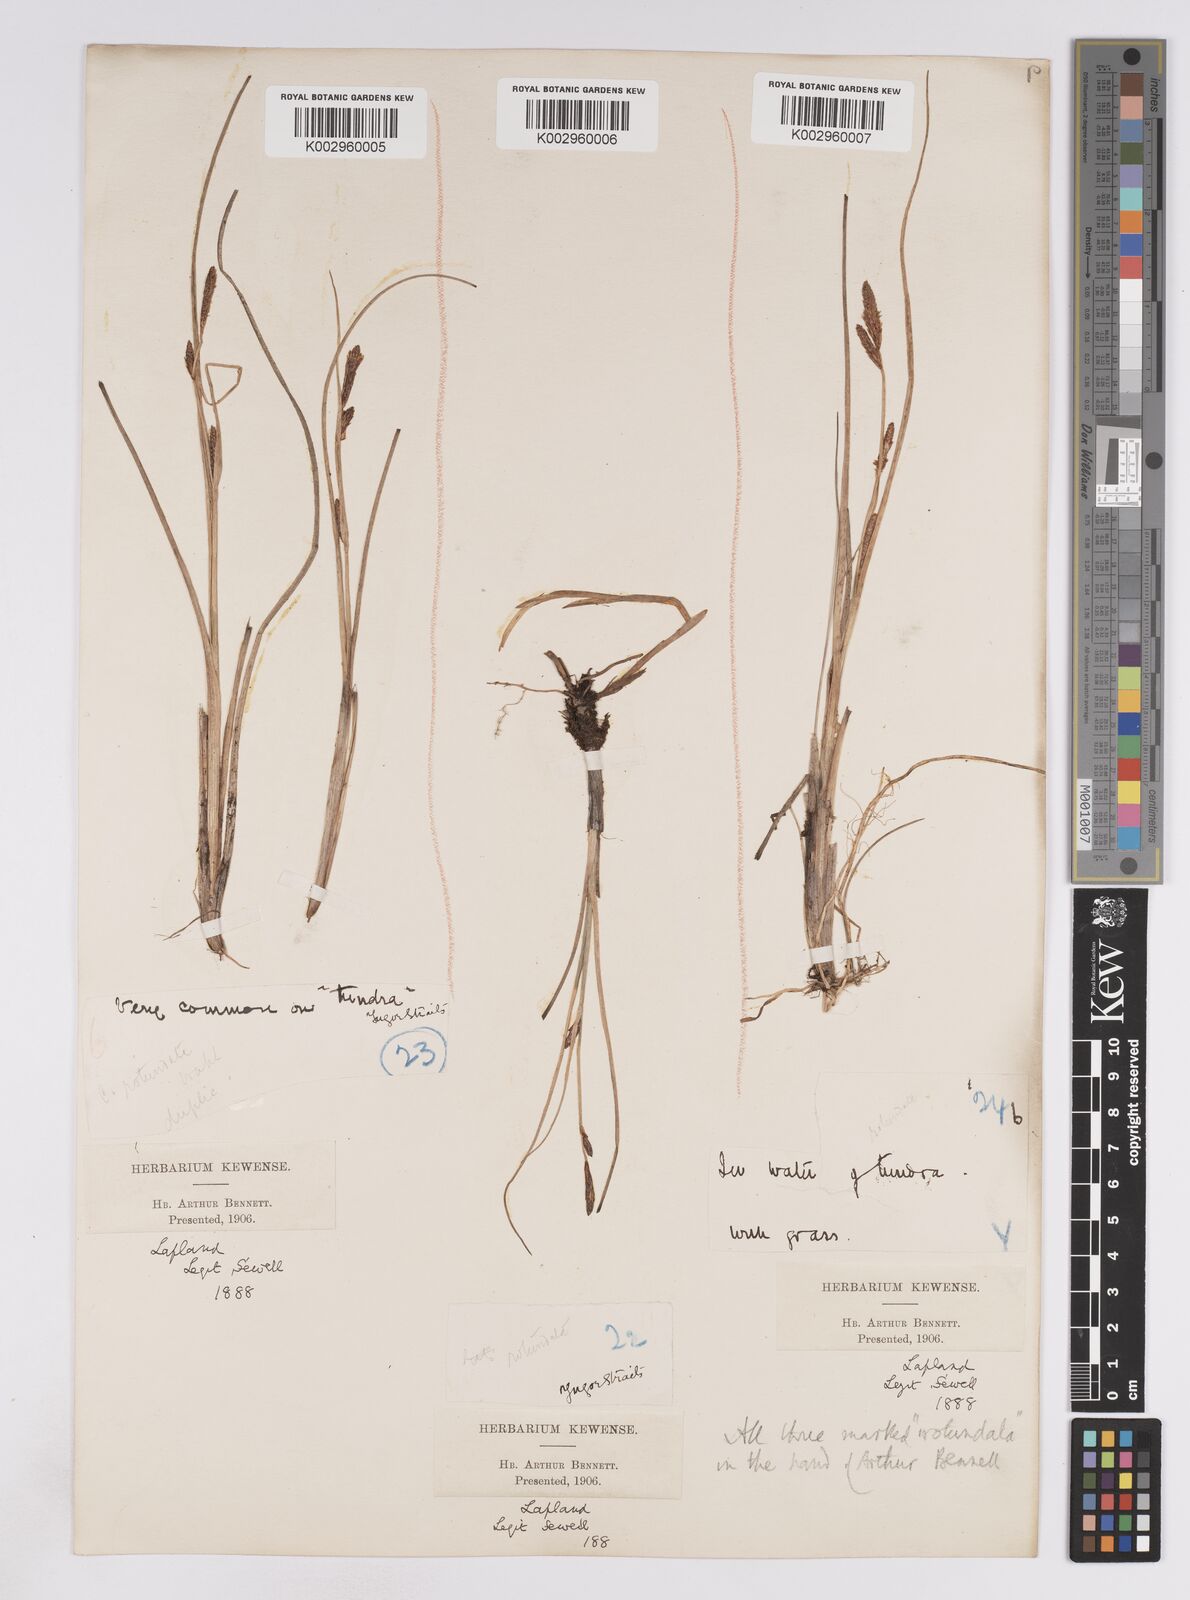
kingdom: Plantae
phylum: Tracheophyta
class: Liliopsida
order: Poales
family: Cyperaceae
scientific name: Cyperaceae
